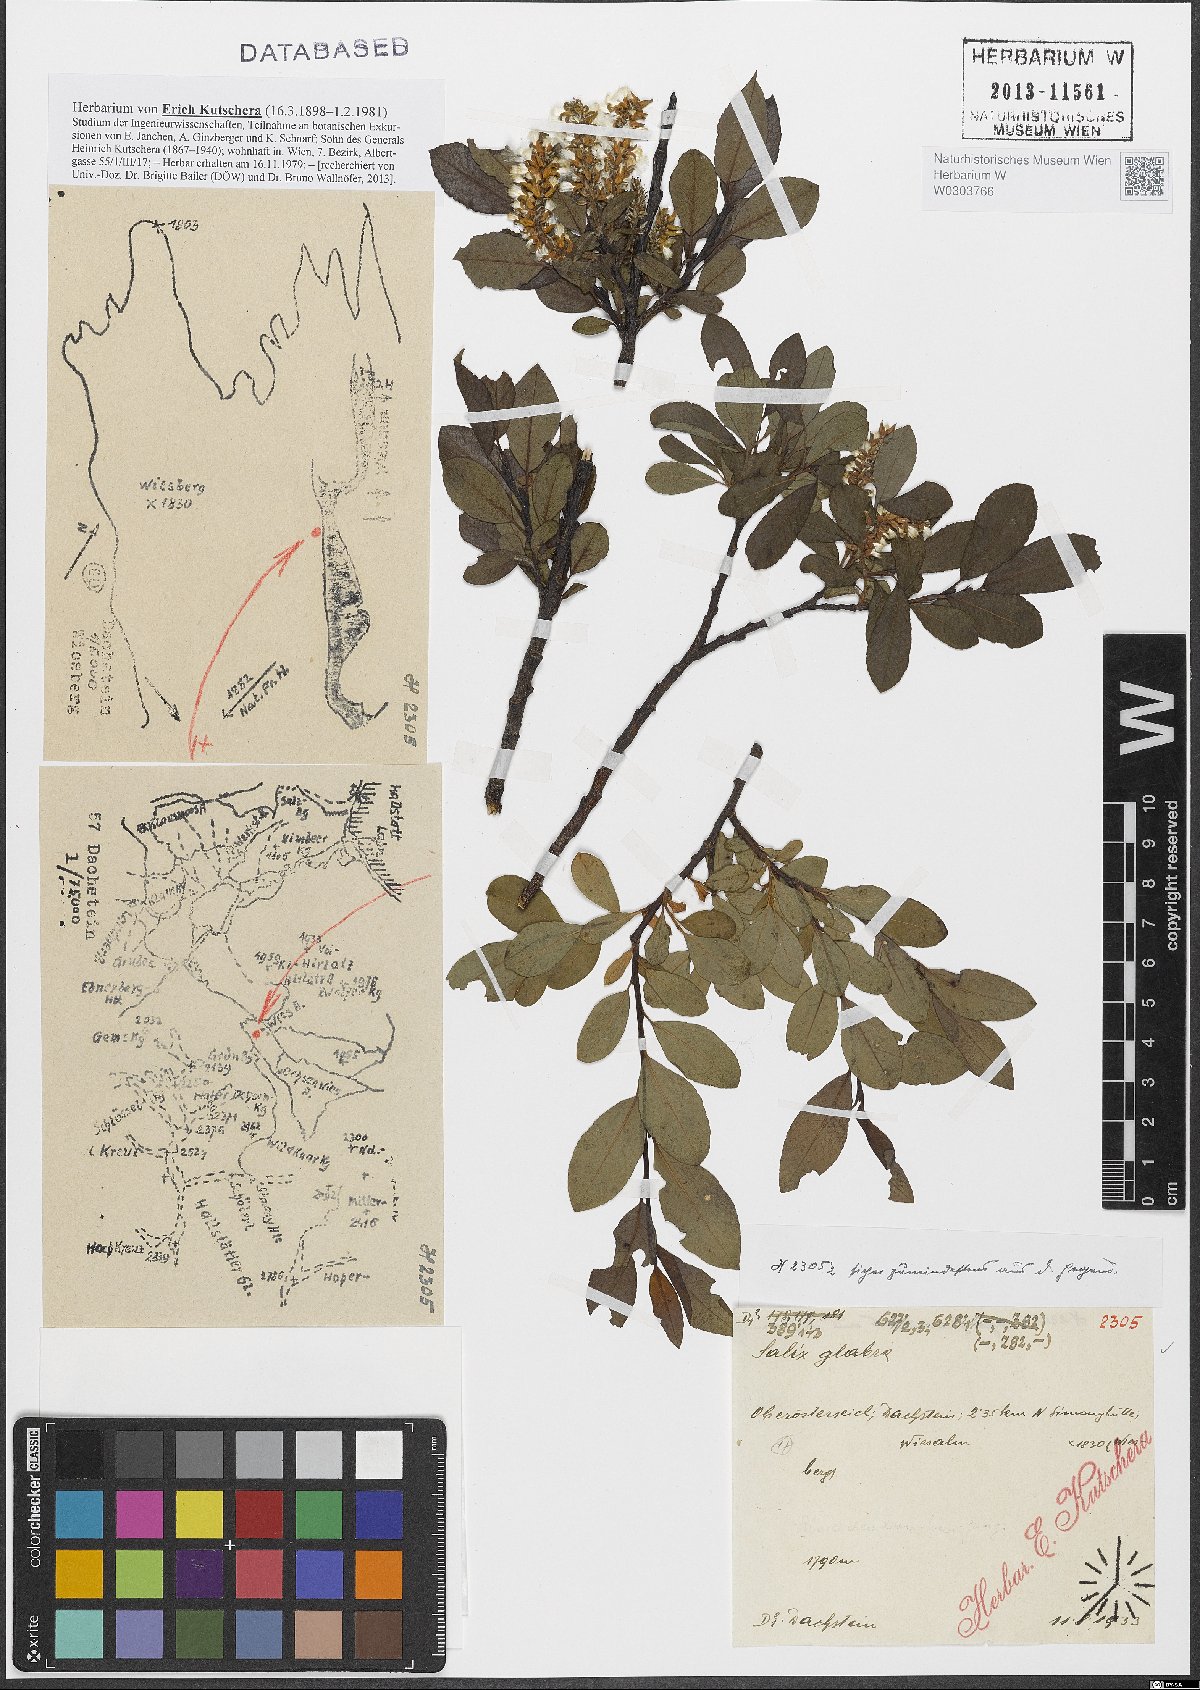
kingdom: Plantae
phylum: Tracheophyta
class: Magnoliopsida
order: Malpighiales
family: Salicaceae
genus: Salix
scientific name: Salix glabra
